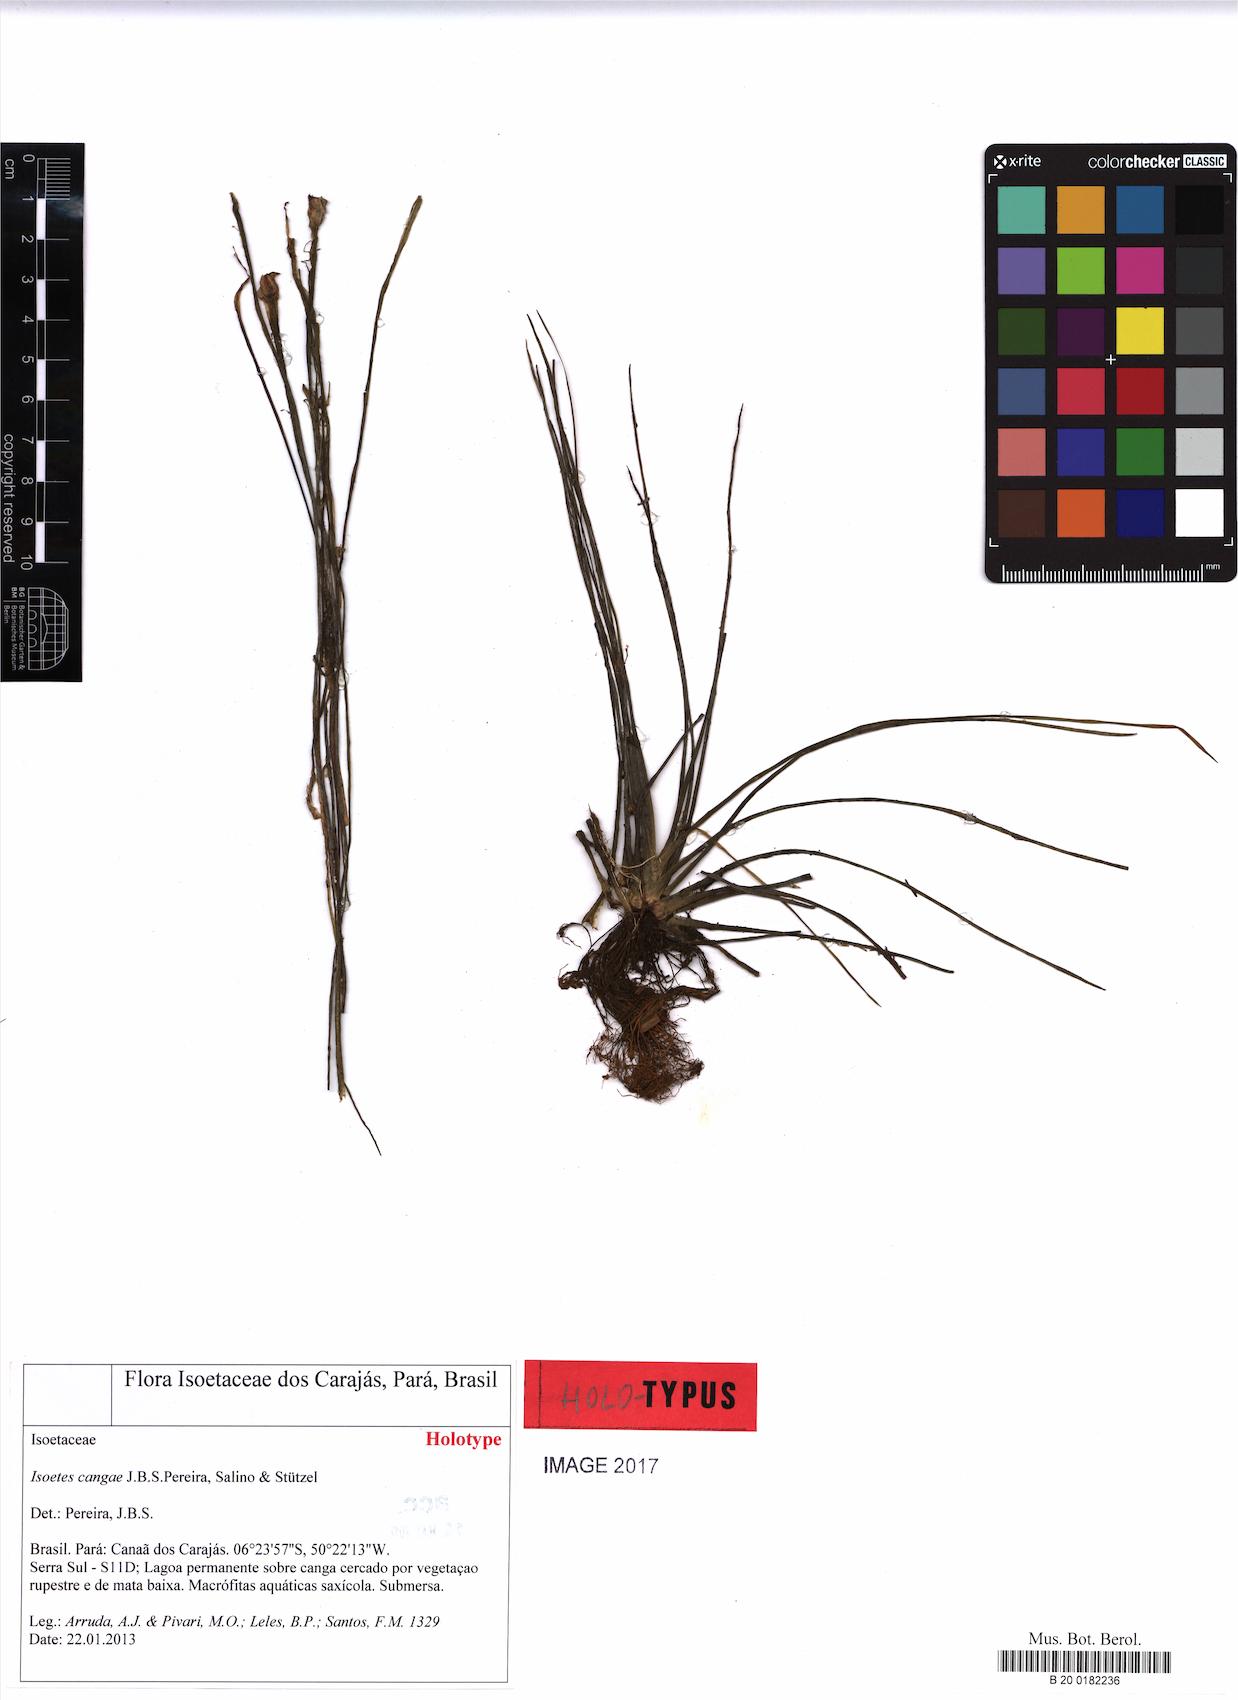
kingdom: Plantae
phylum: Tracheophyta
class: Lycopodiopsida
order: Isoetales
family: Isoetaceae
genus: Isoetes
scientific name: Isoetes cangae
